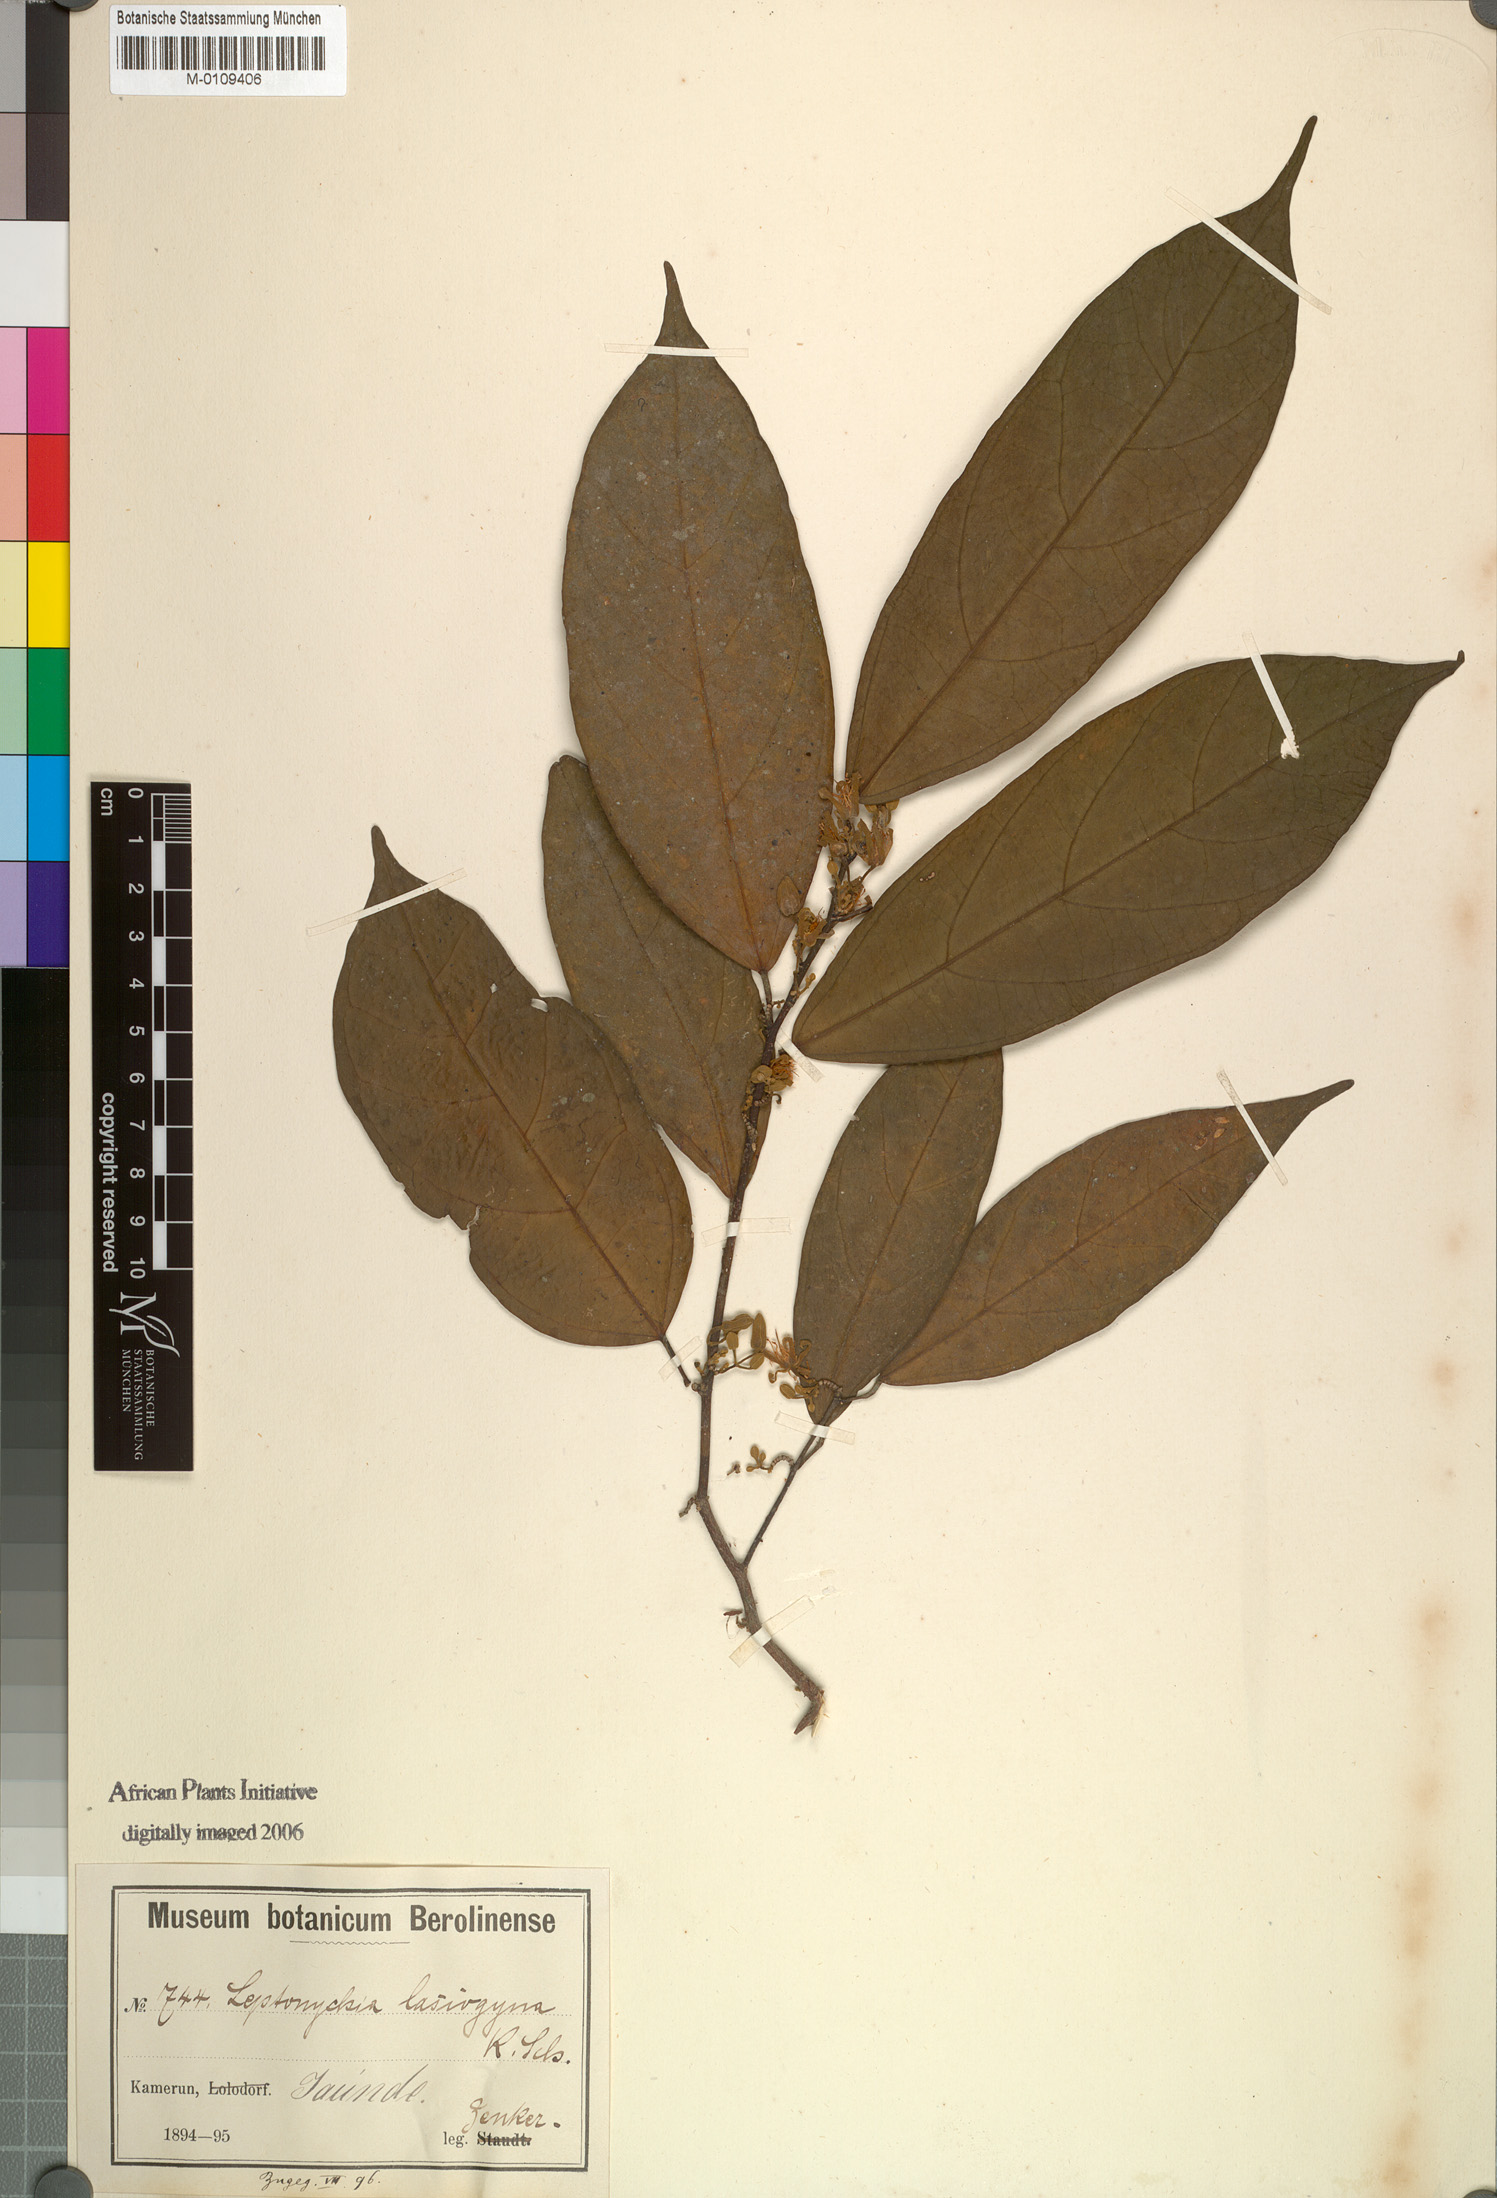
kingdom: Plantae
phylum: Tracheophyta
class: Magnoliopsida
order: Malvales
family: Malvaceae
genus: Leptonychia
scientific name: Leptonychia multiflora
